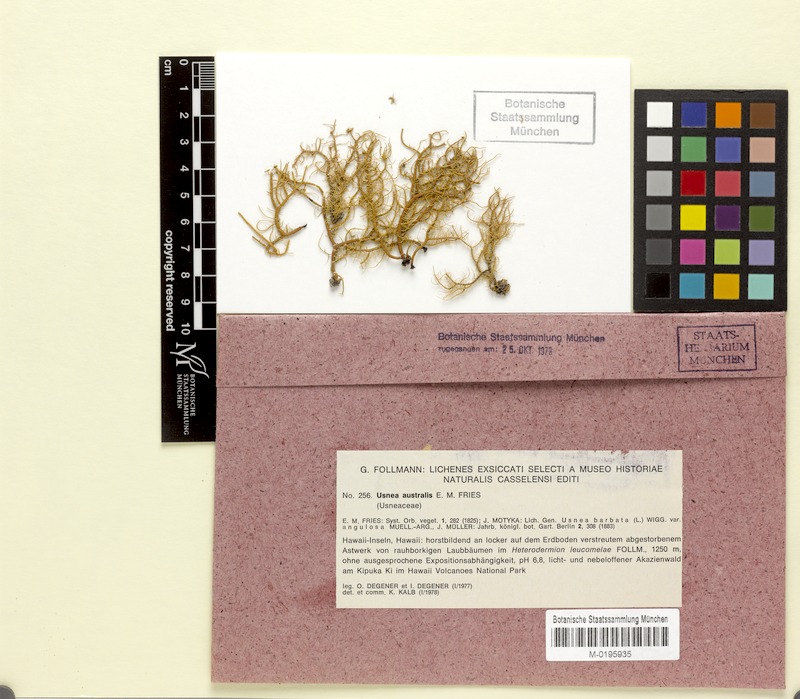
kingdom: Fungi
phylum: Ascomycota
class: Lecanoromycetes
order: Lecanorales
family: Parmeliaceae
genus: Usnea
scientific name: Usnea australis
